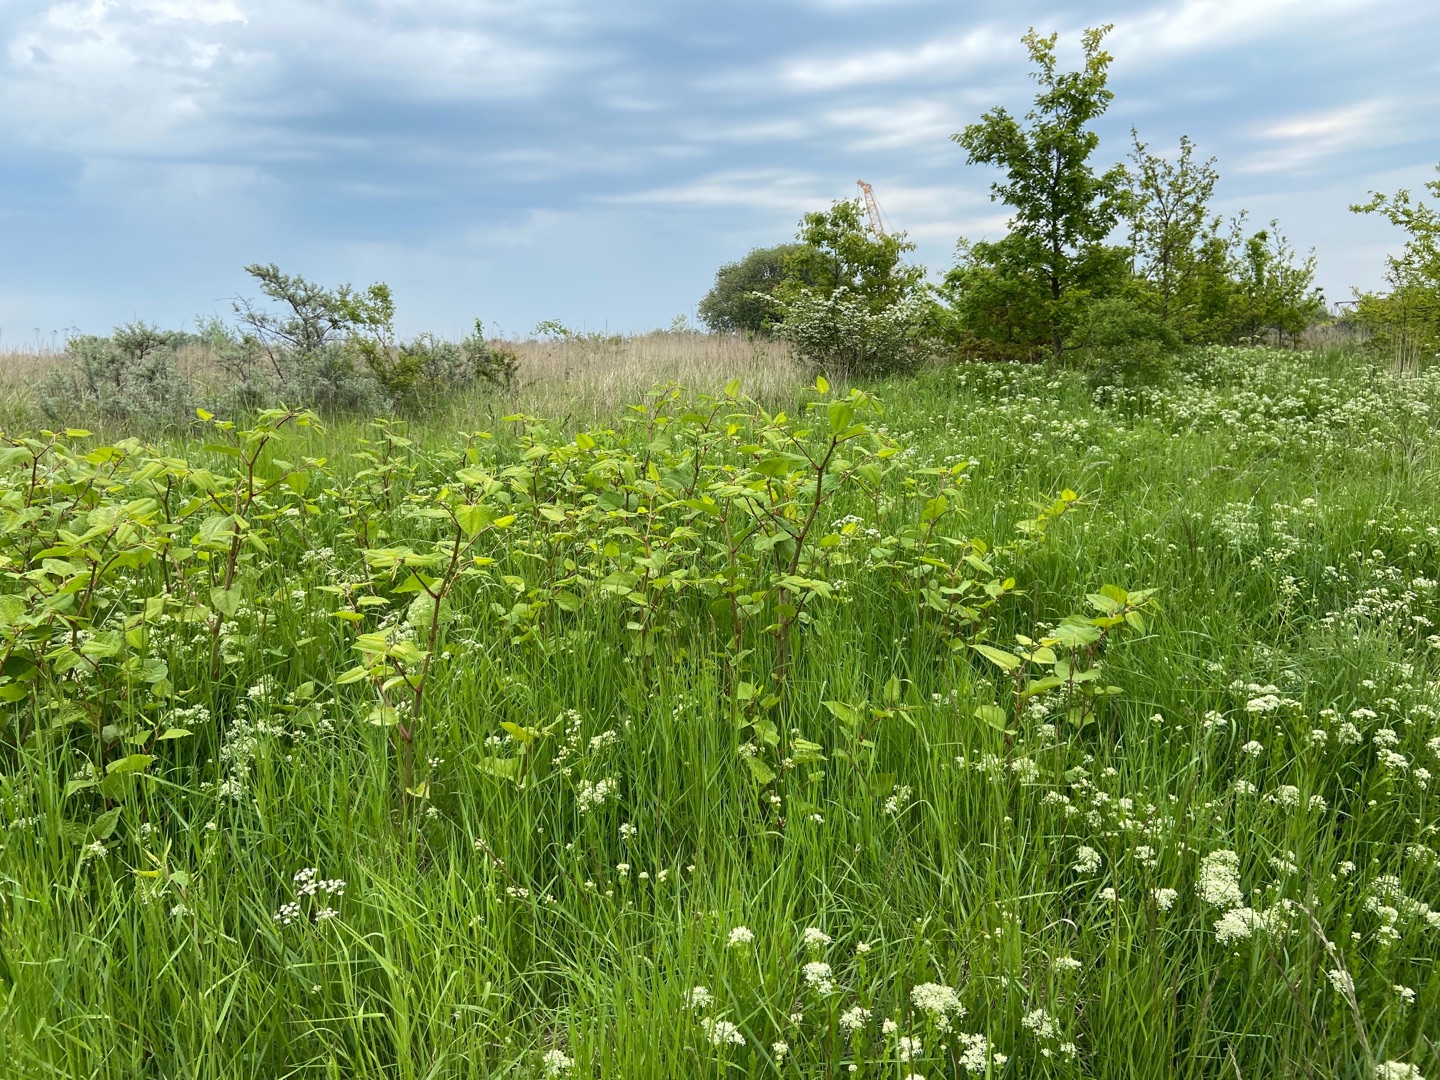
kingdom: Plantae
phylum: Tracheophyta
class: Magnoliopsida
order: Caryophyllales
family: Polygonaceae
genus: Reynoutria
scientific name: Reynoutria japonica
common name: Japan-pileurt
